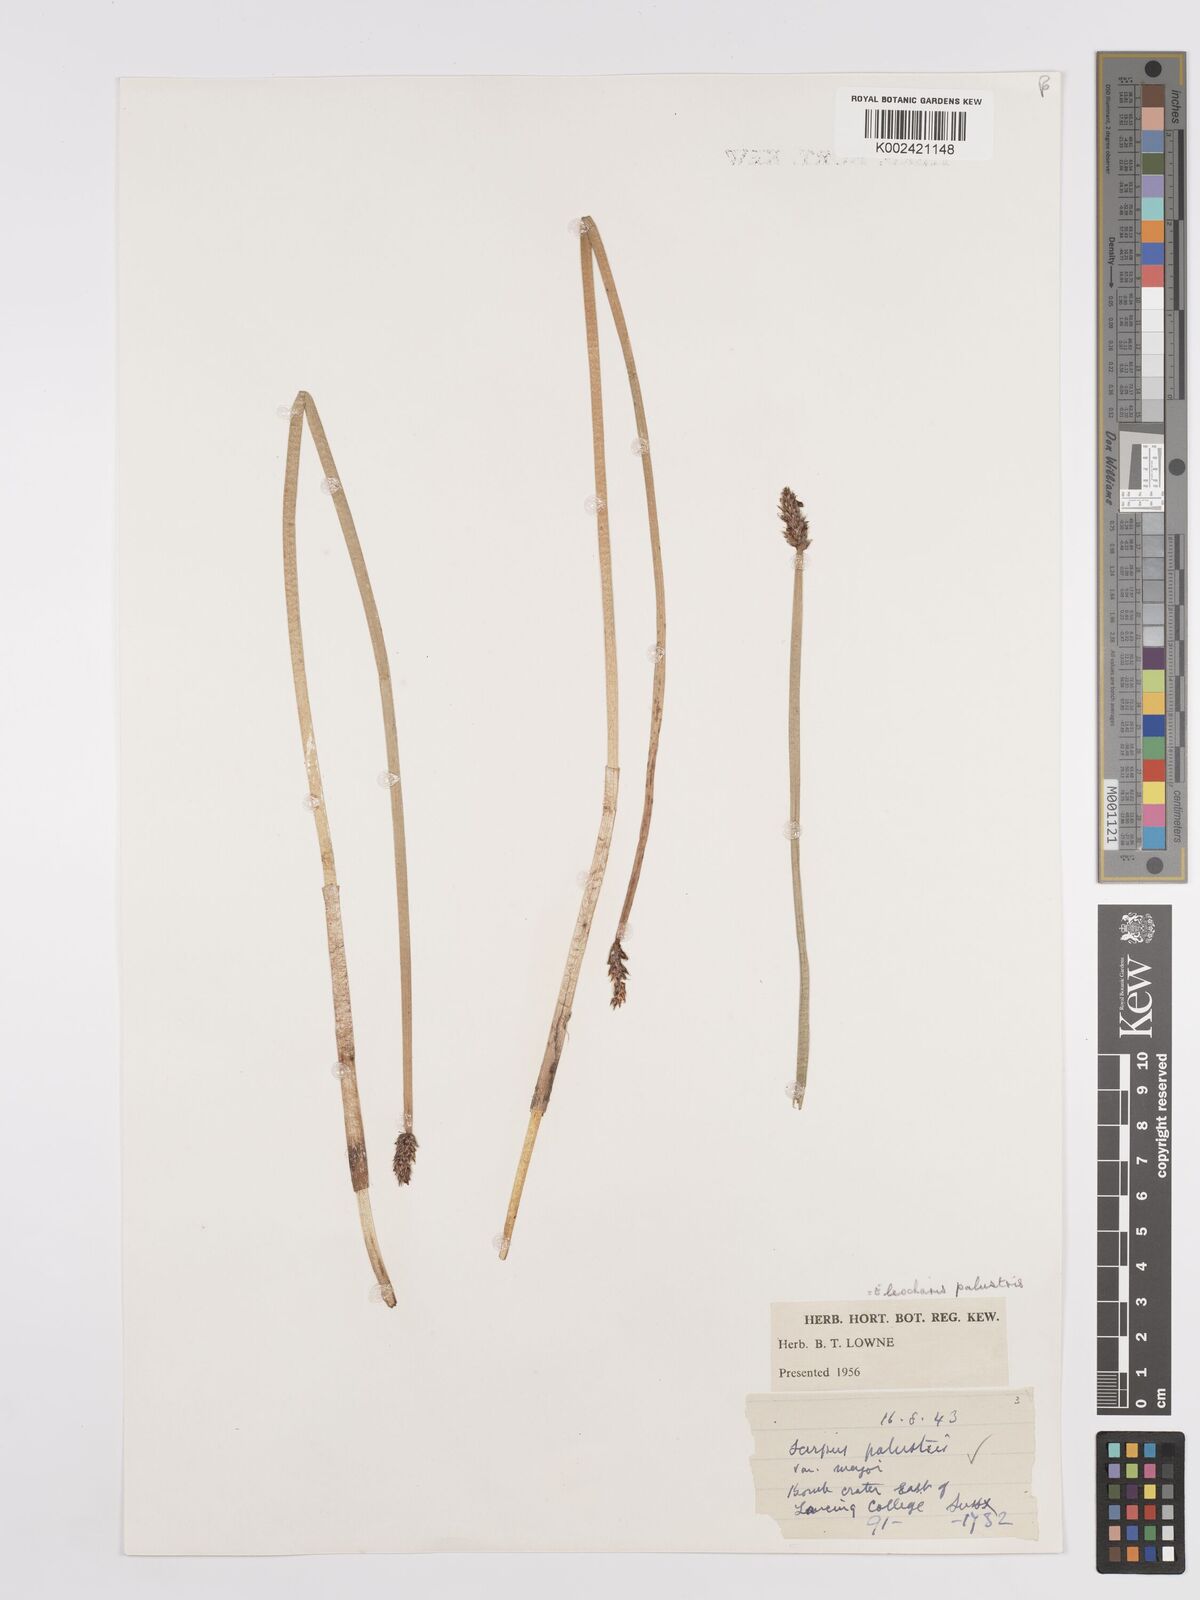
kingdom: Plantae
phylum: Tracheophyta
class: Liliopsida
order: Poales
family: Cyperaceae
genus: Eleocharis
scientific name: Eleocharis palustris
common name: Common spike-rush
